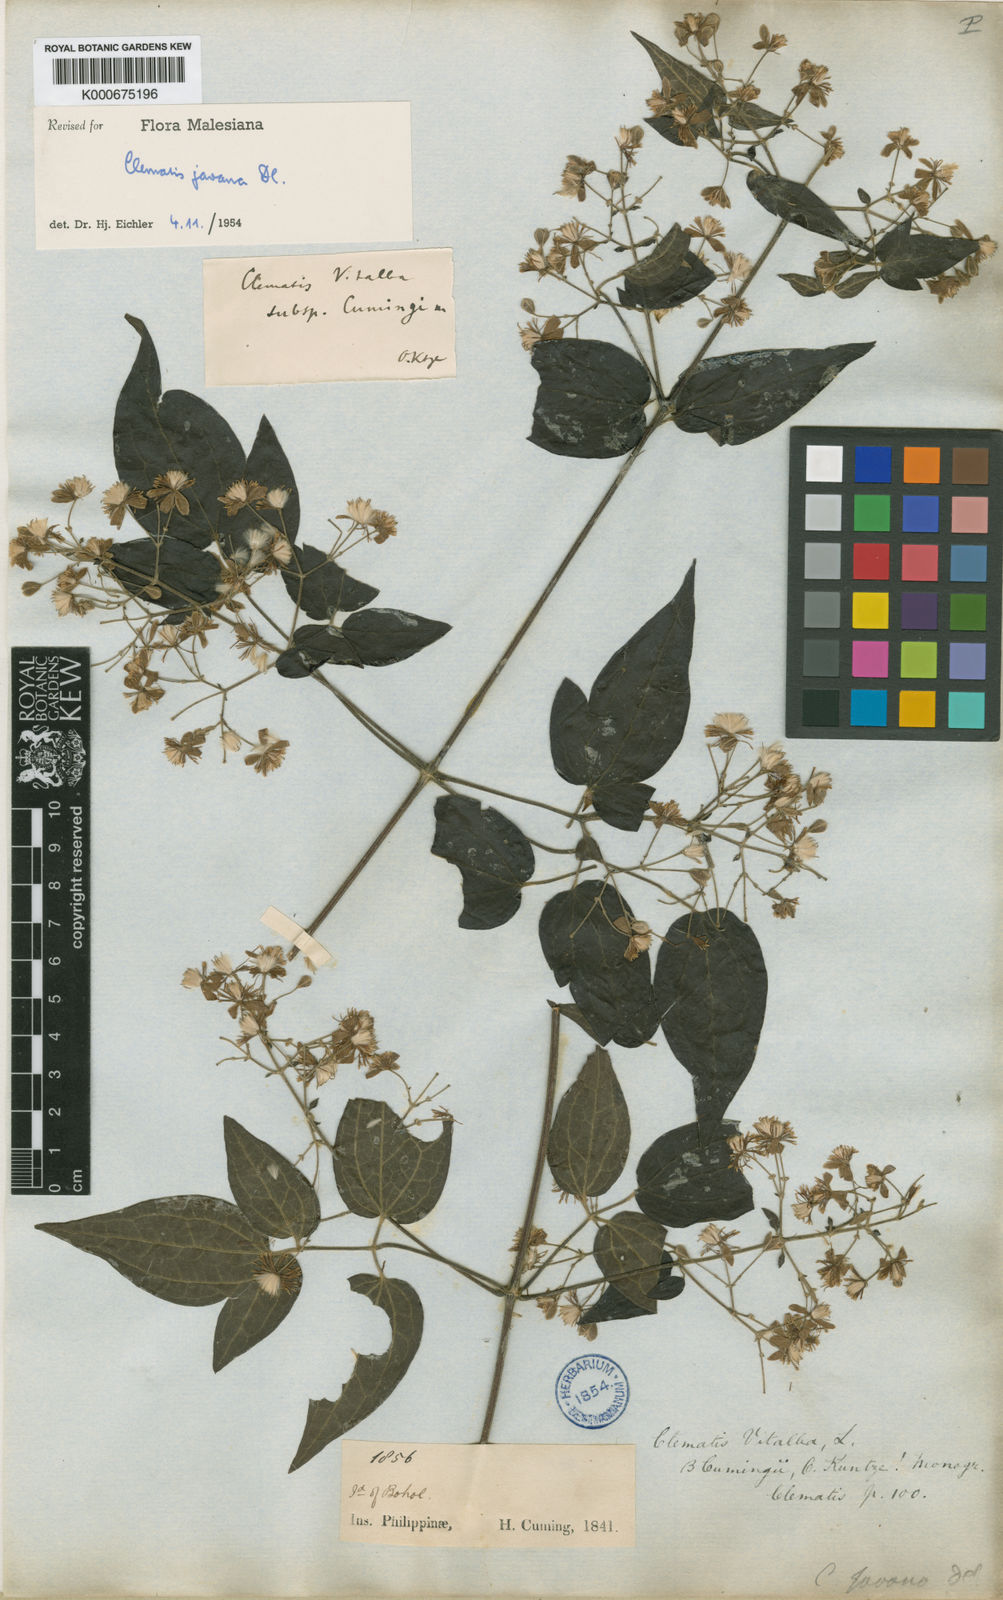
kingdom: Plantae
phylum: Tracheophyta
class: Magnoliopsida
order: Ranunculales
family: Ranunculaceae
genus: Clematis
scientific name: Clematis gouriana
